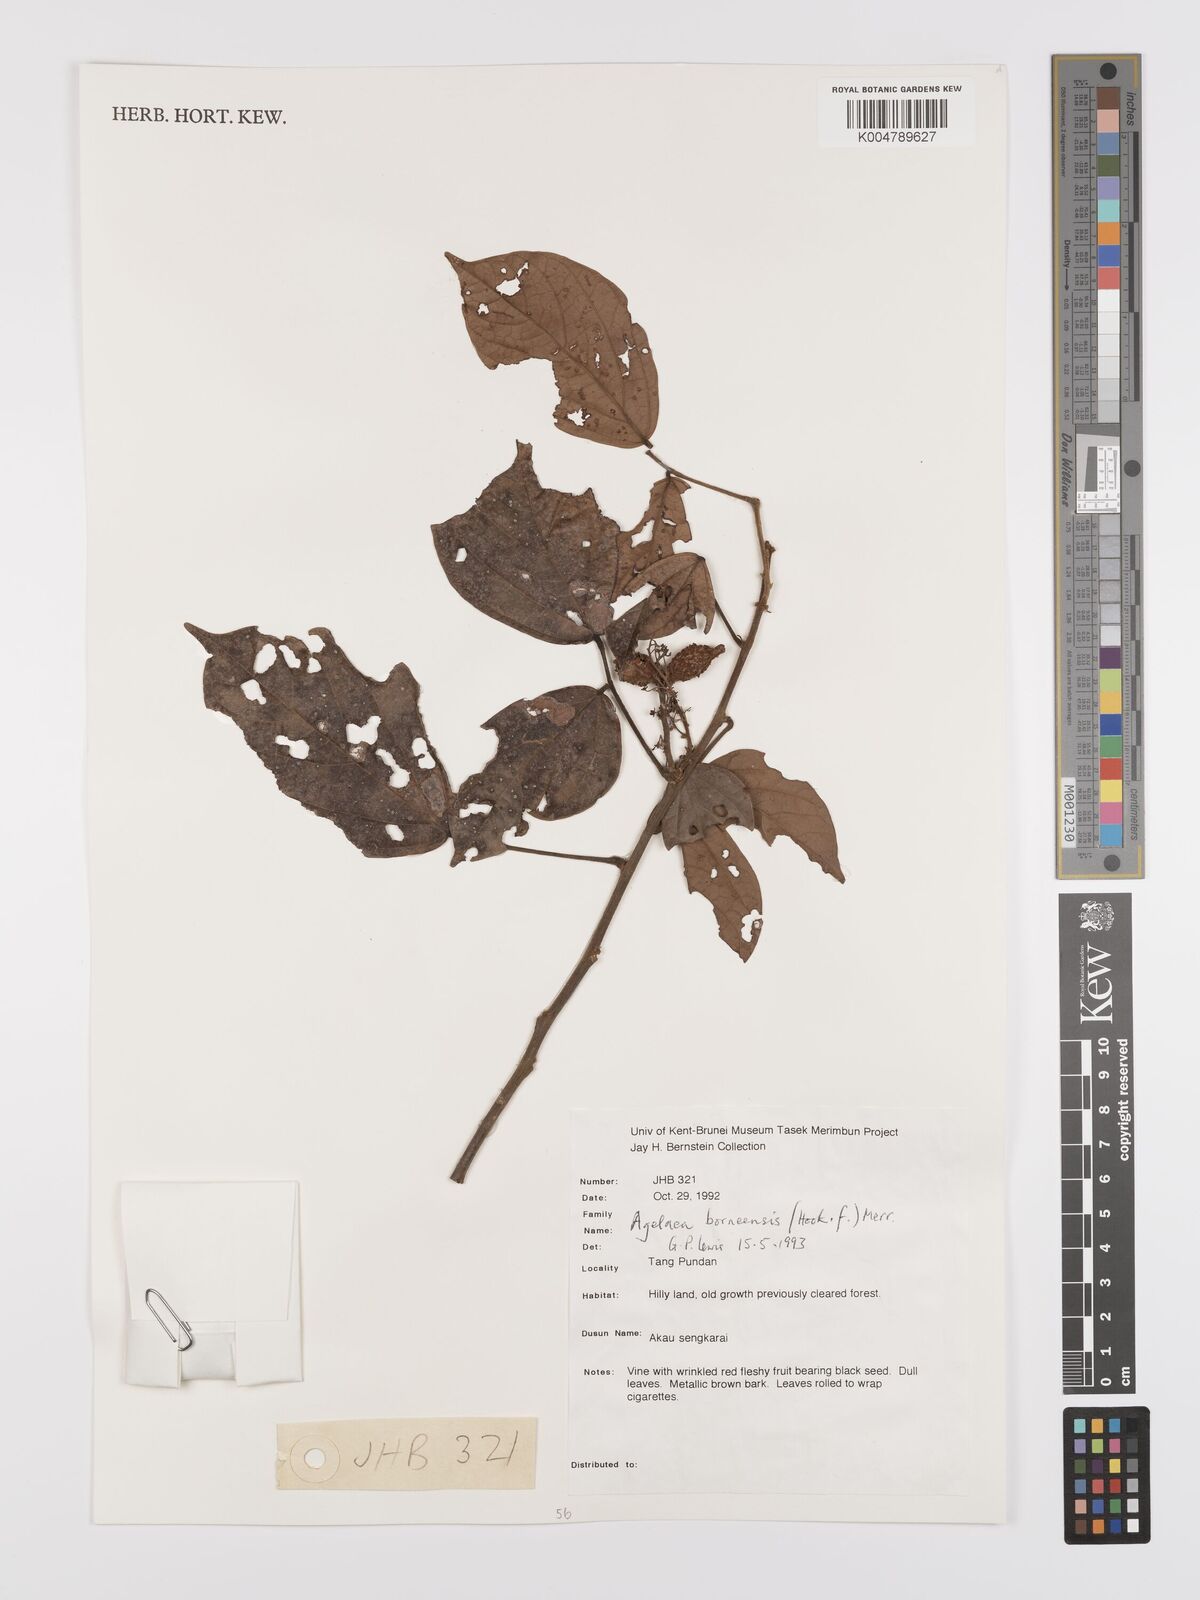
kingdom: Plantae
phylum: Tracheophyta
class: Magnoliopsida
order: Oxalidales
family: Connaraceae
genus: Agelaea
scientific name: Agelaea borneensis
